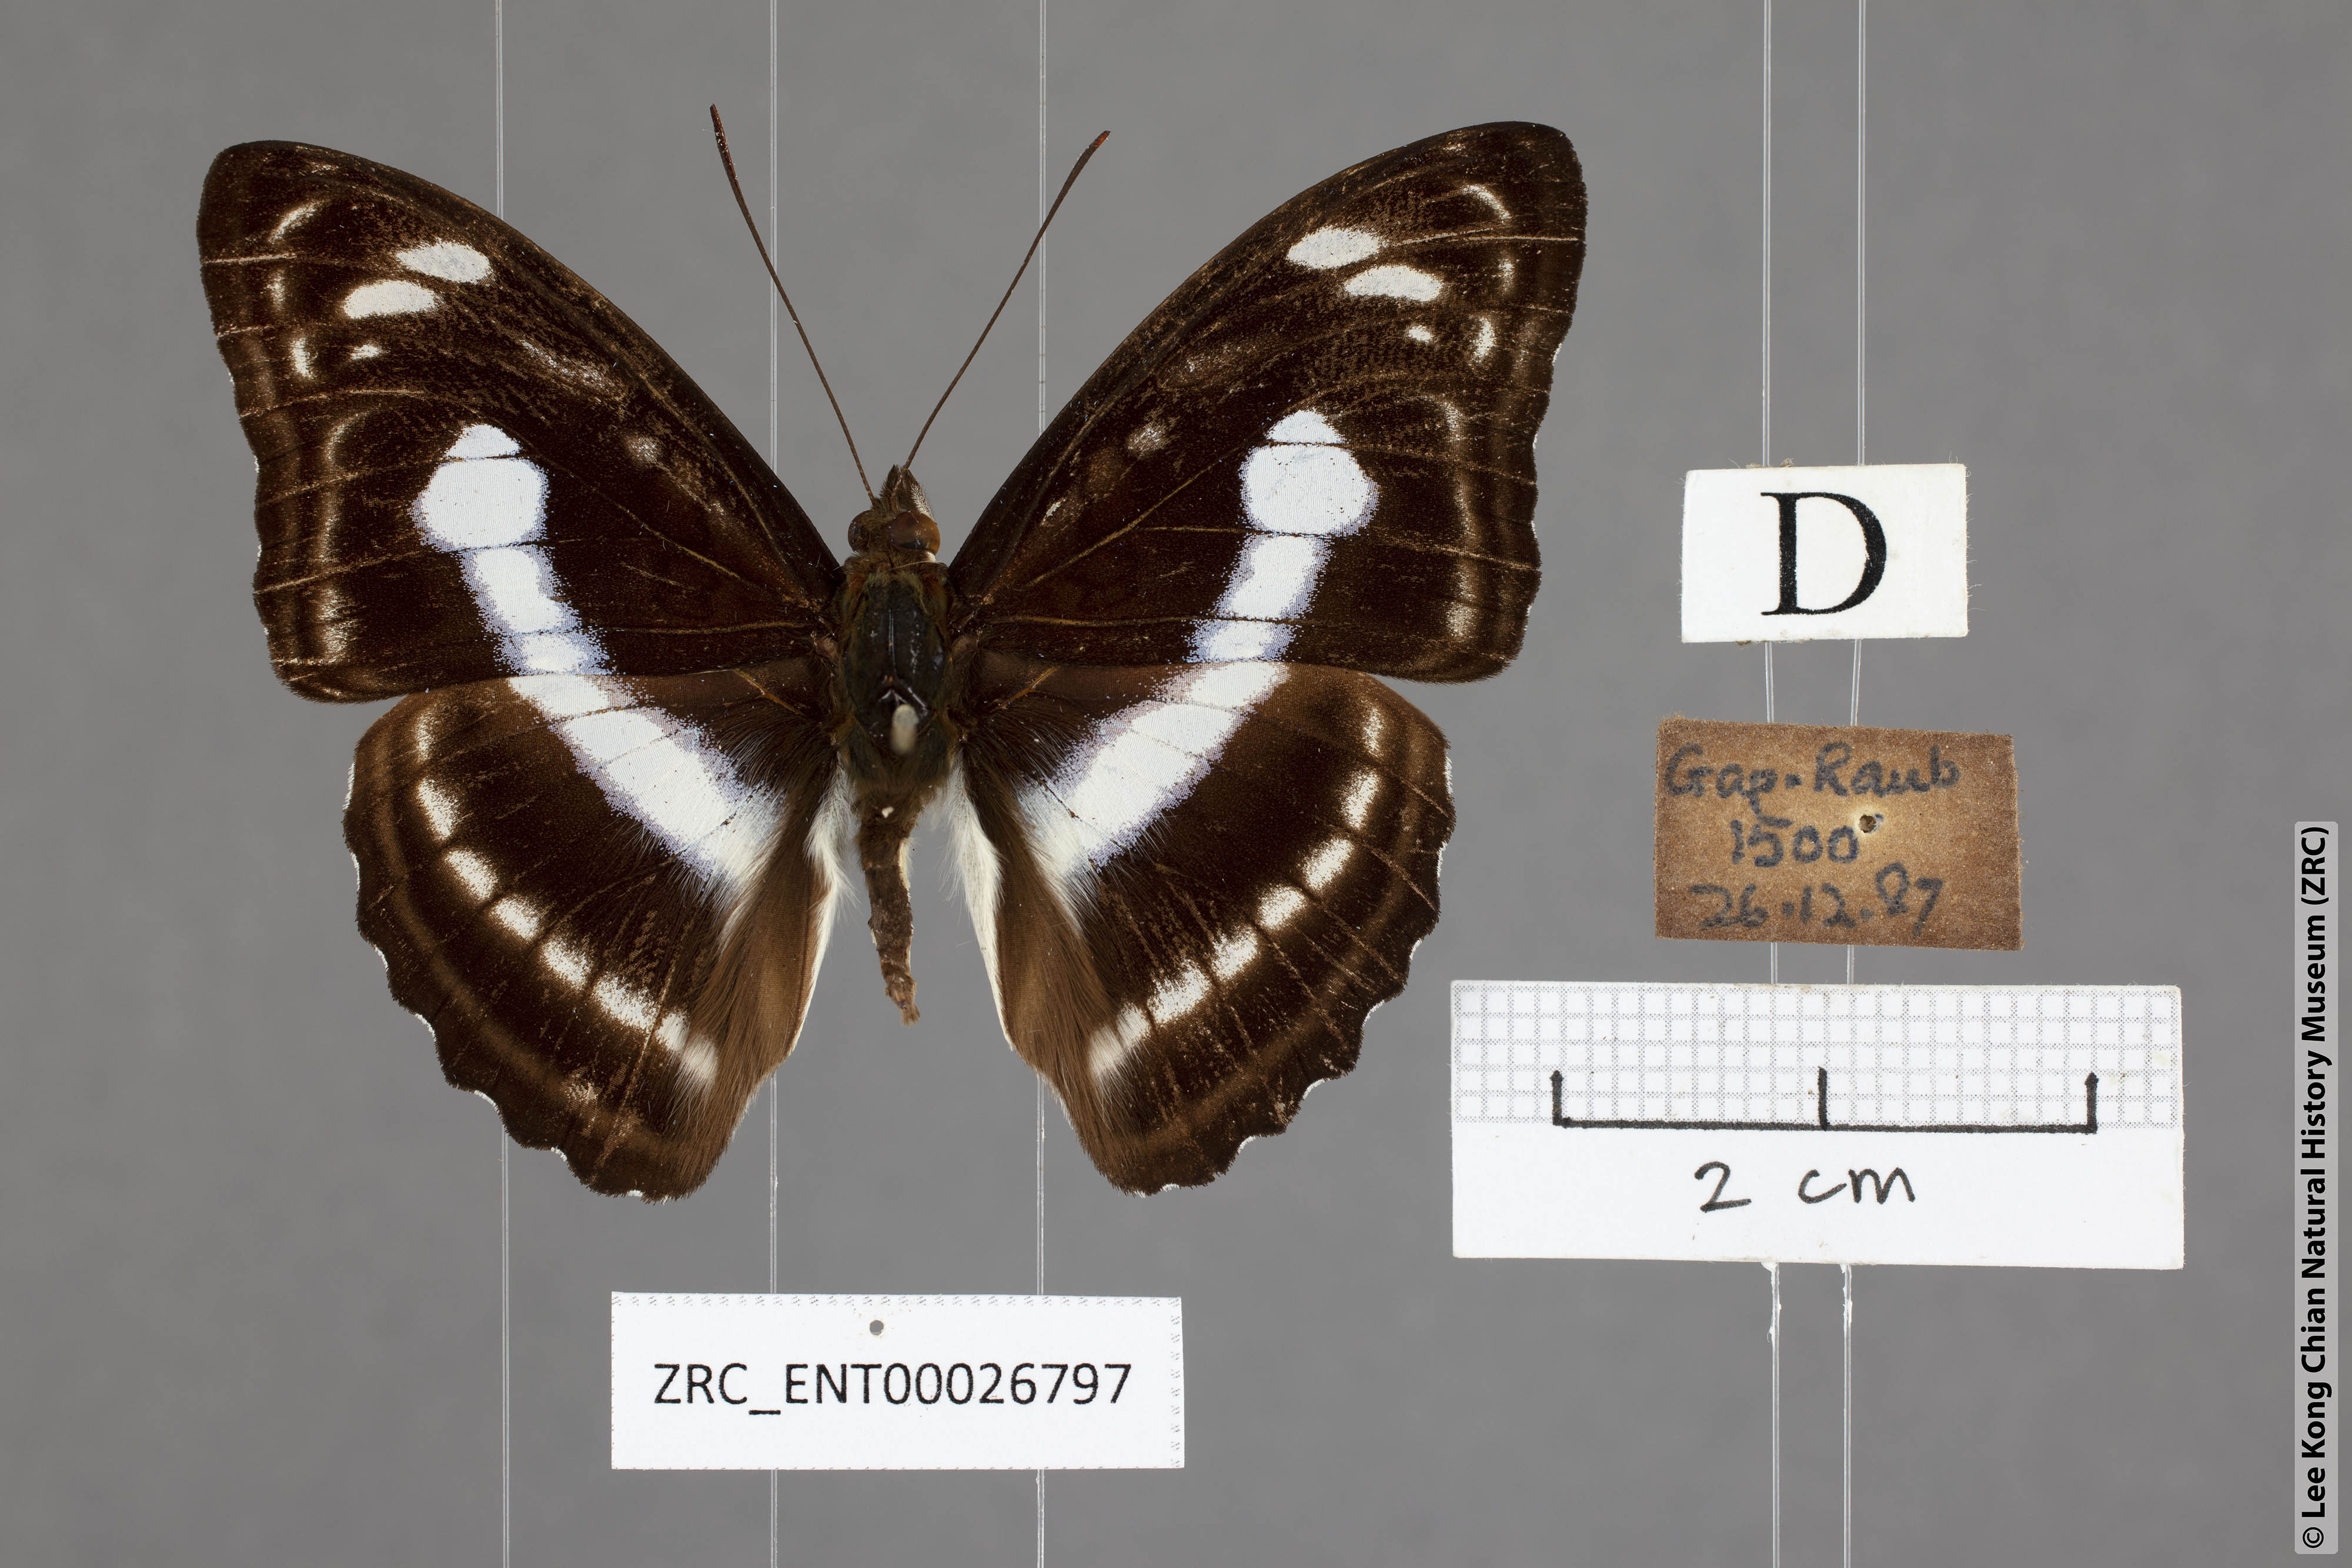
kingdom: Animalia
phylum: Arthropoda
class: Insecta
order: Lepidoptera
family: Nymphalidae
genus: Parathyma
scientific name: Parathyma selenophora
